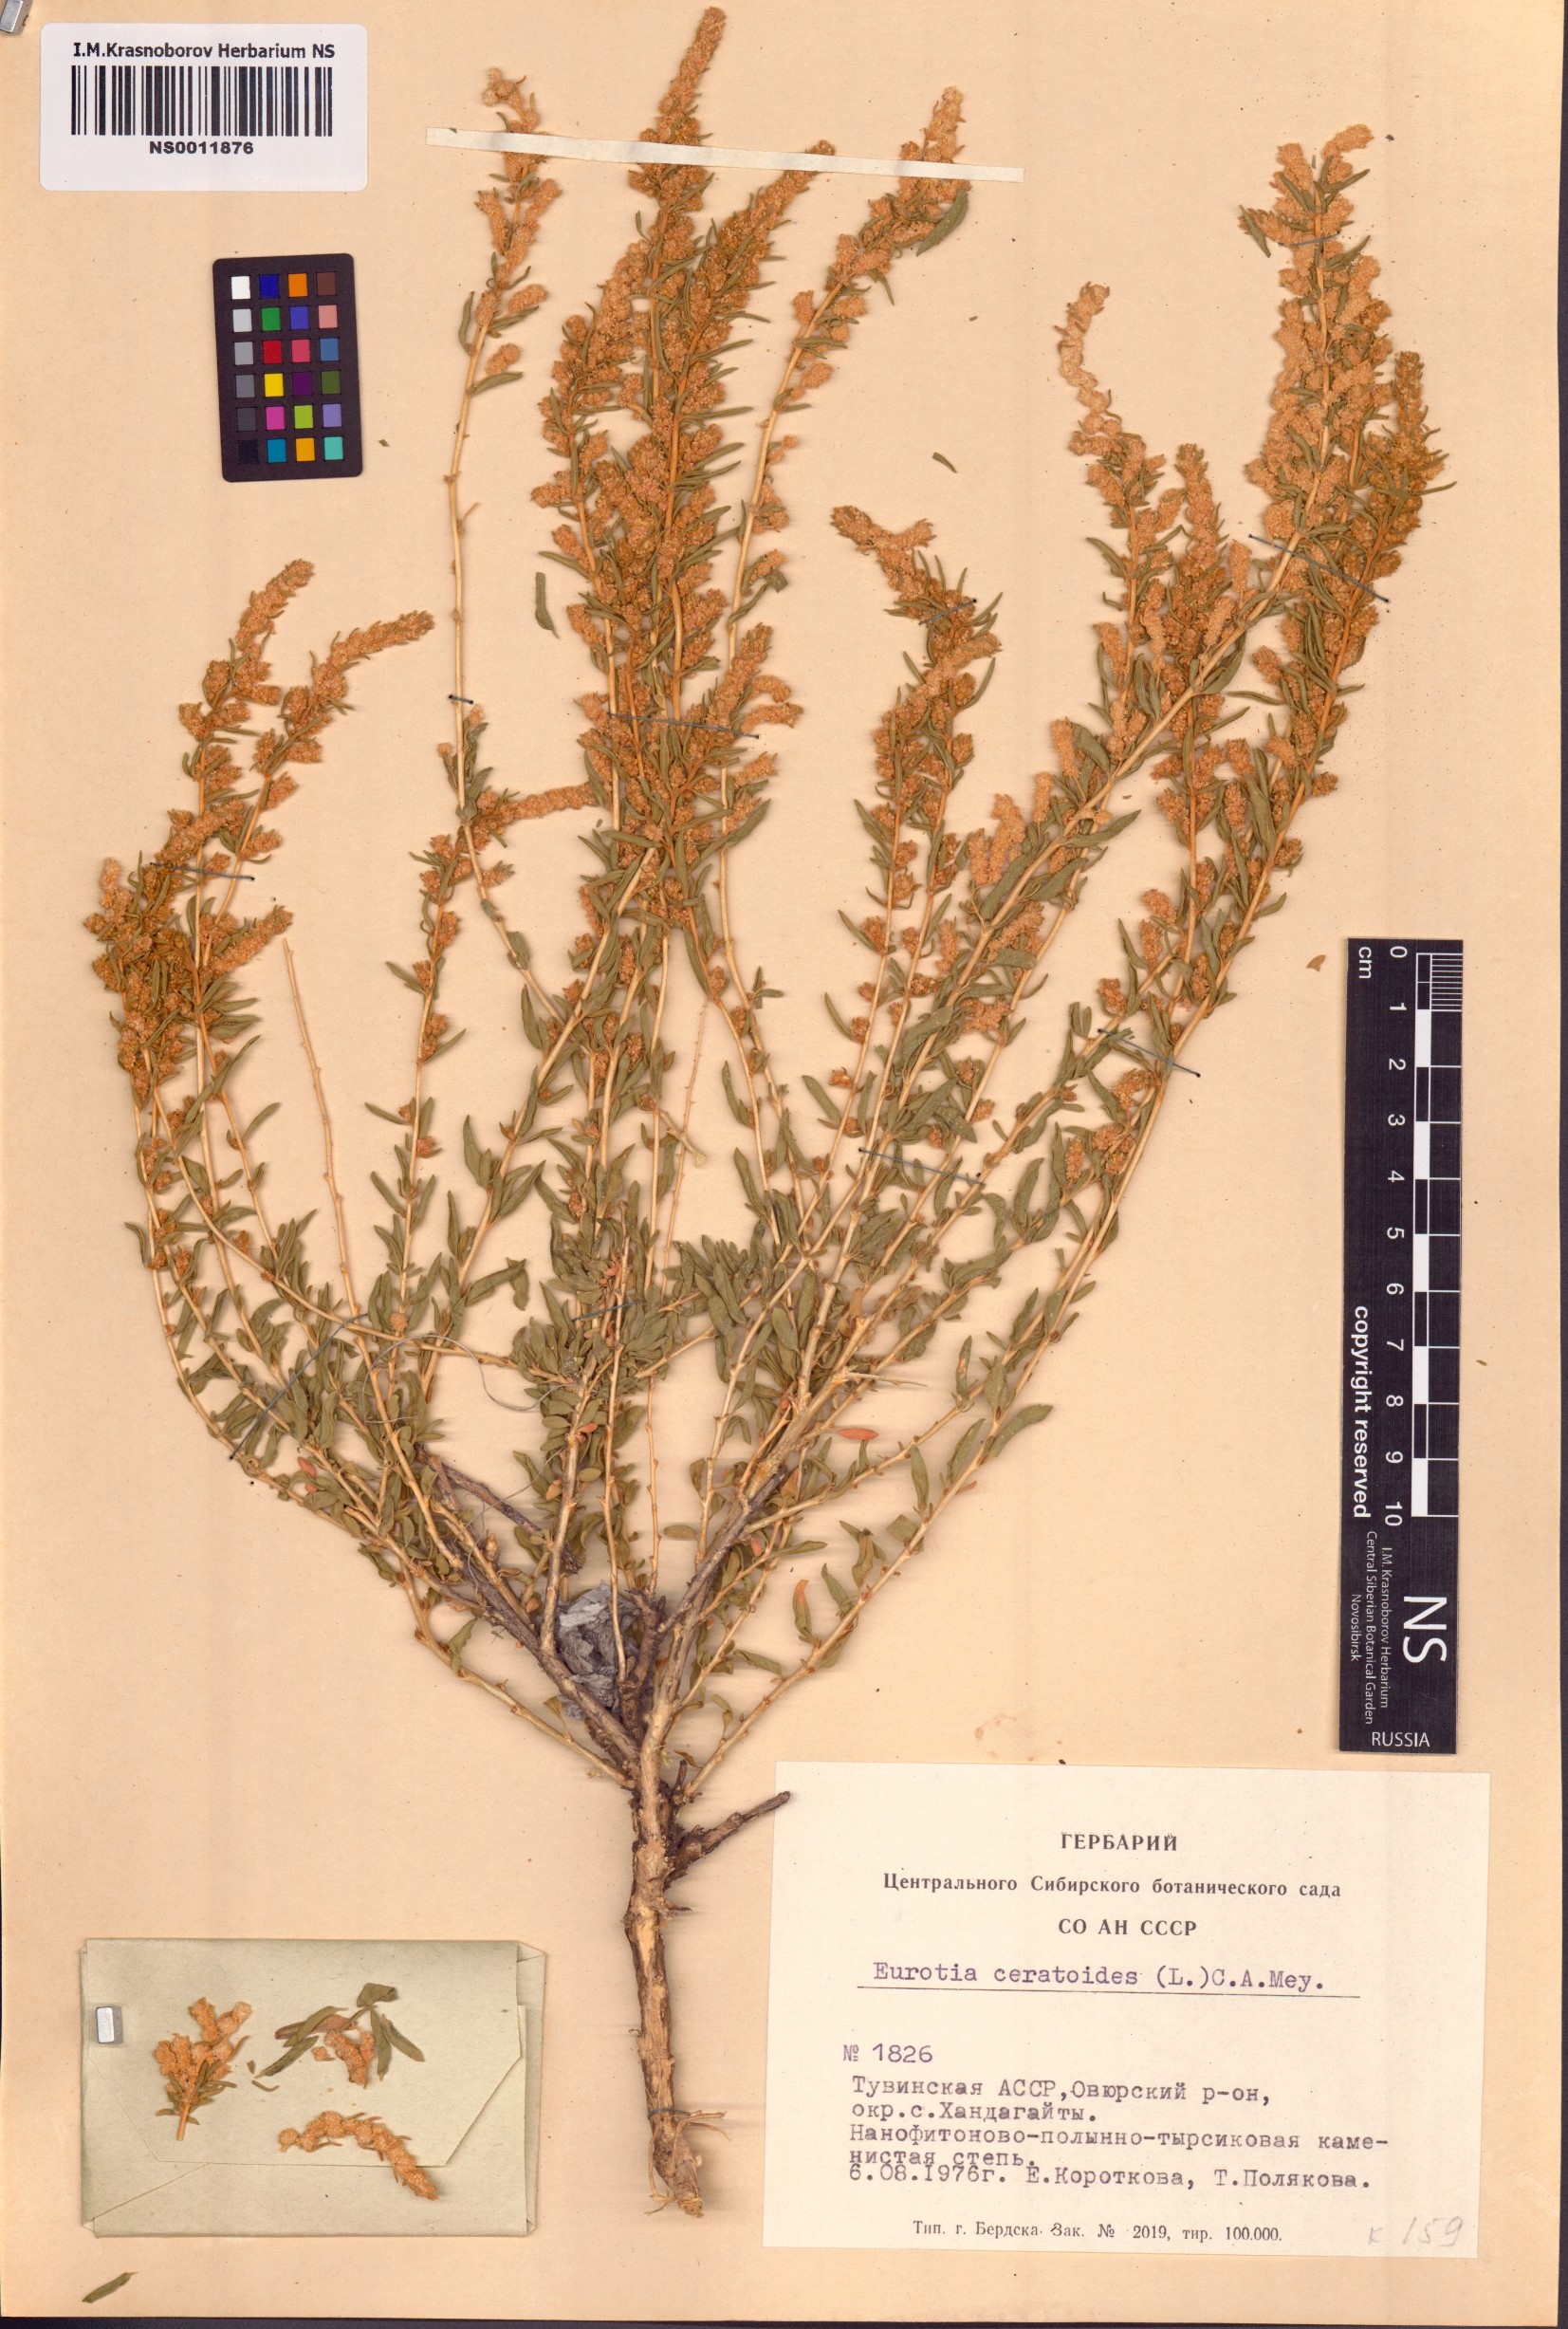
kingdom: Plantae
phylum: Tracheophyta
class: Magnoliopsida
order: Caryophyllales
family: Amaranthaceae
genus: Krascheninnikovia
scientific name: Krascheninnikovia ceratoides
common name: Pamirian winterfat
